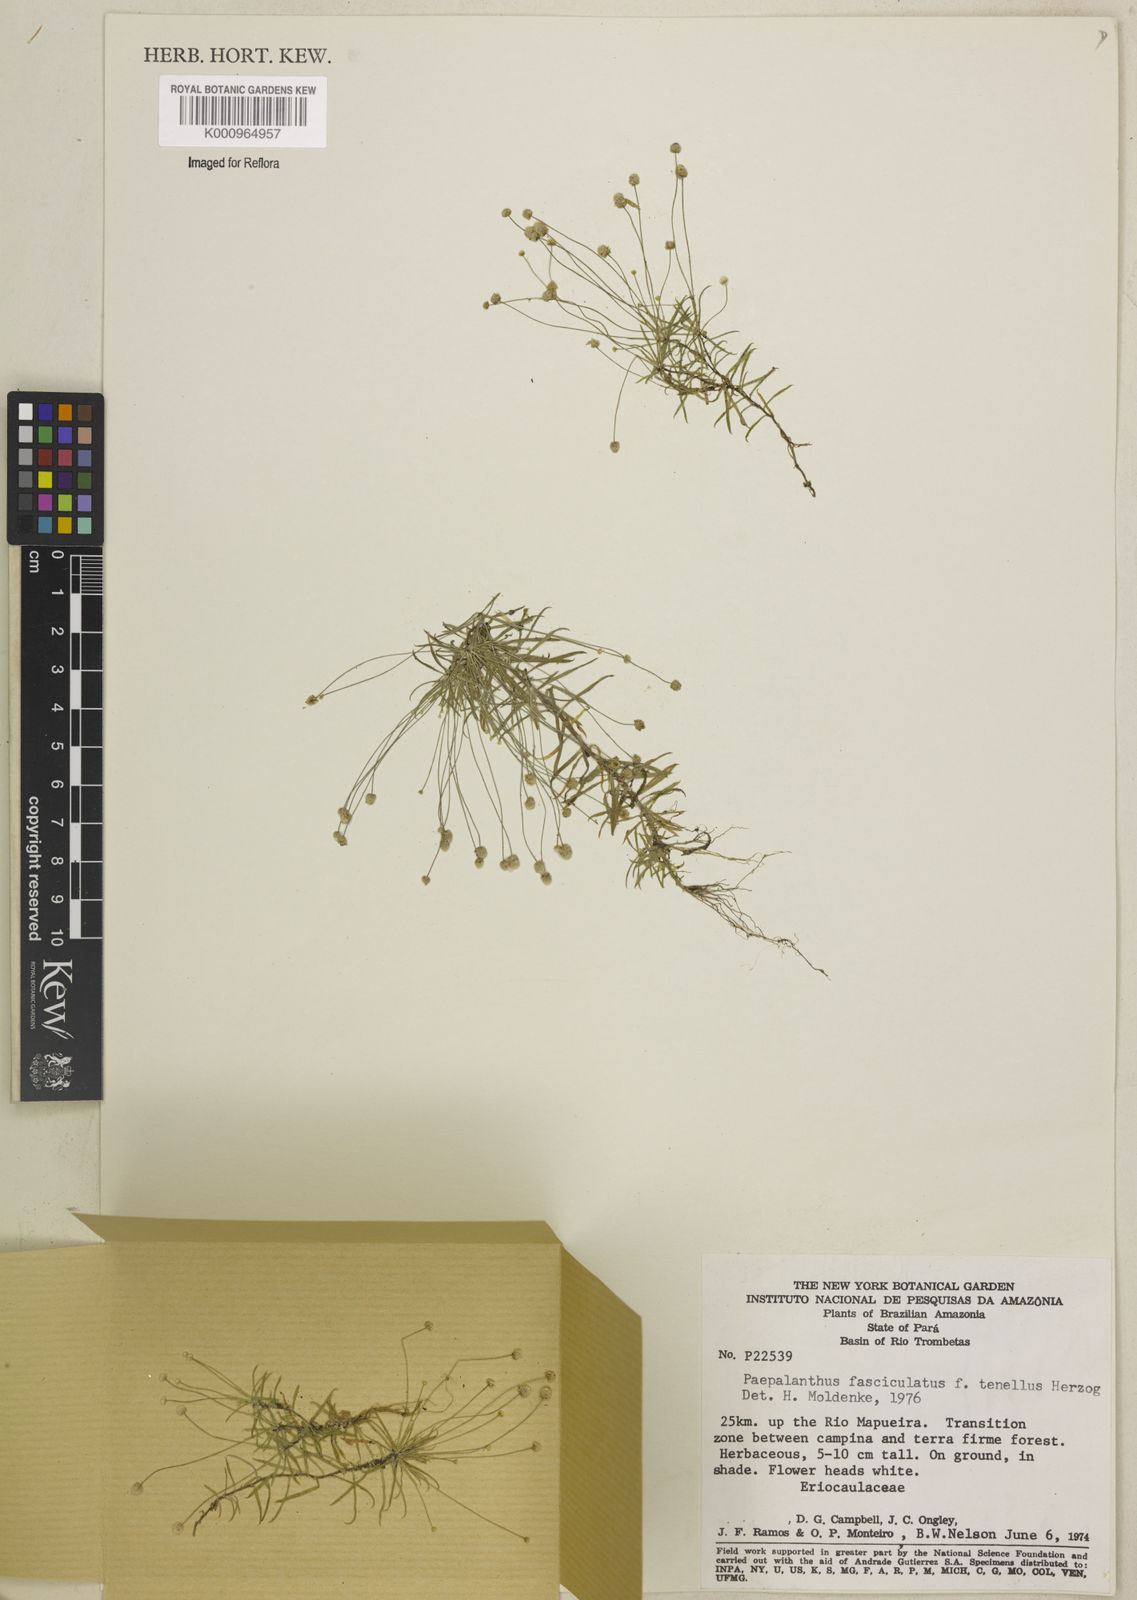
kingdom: Plantae
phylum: Tracheophyta
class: Liliopsida
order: Poales
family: Eriocaulaceae
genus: Paepalanthus
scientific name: Paepalanthus fasciculatus
